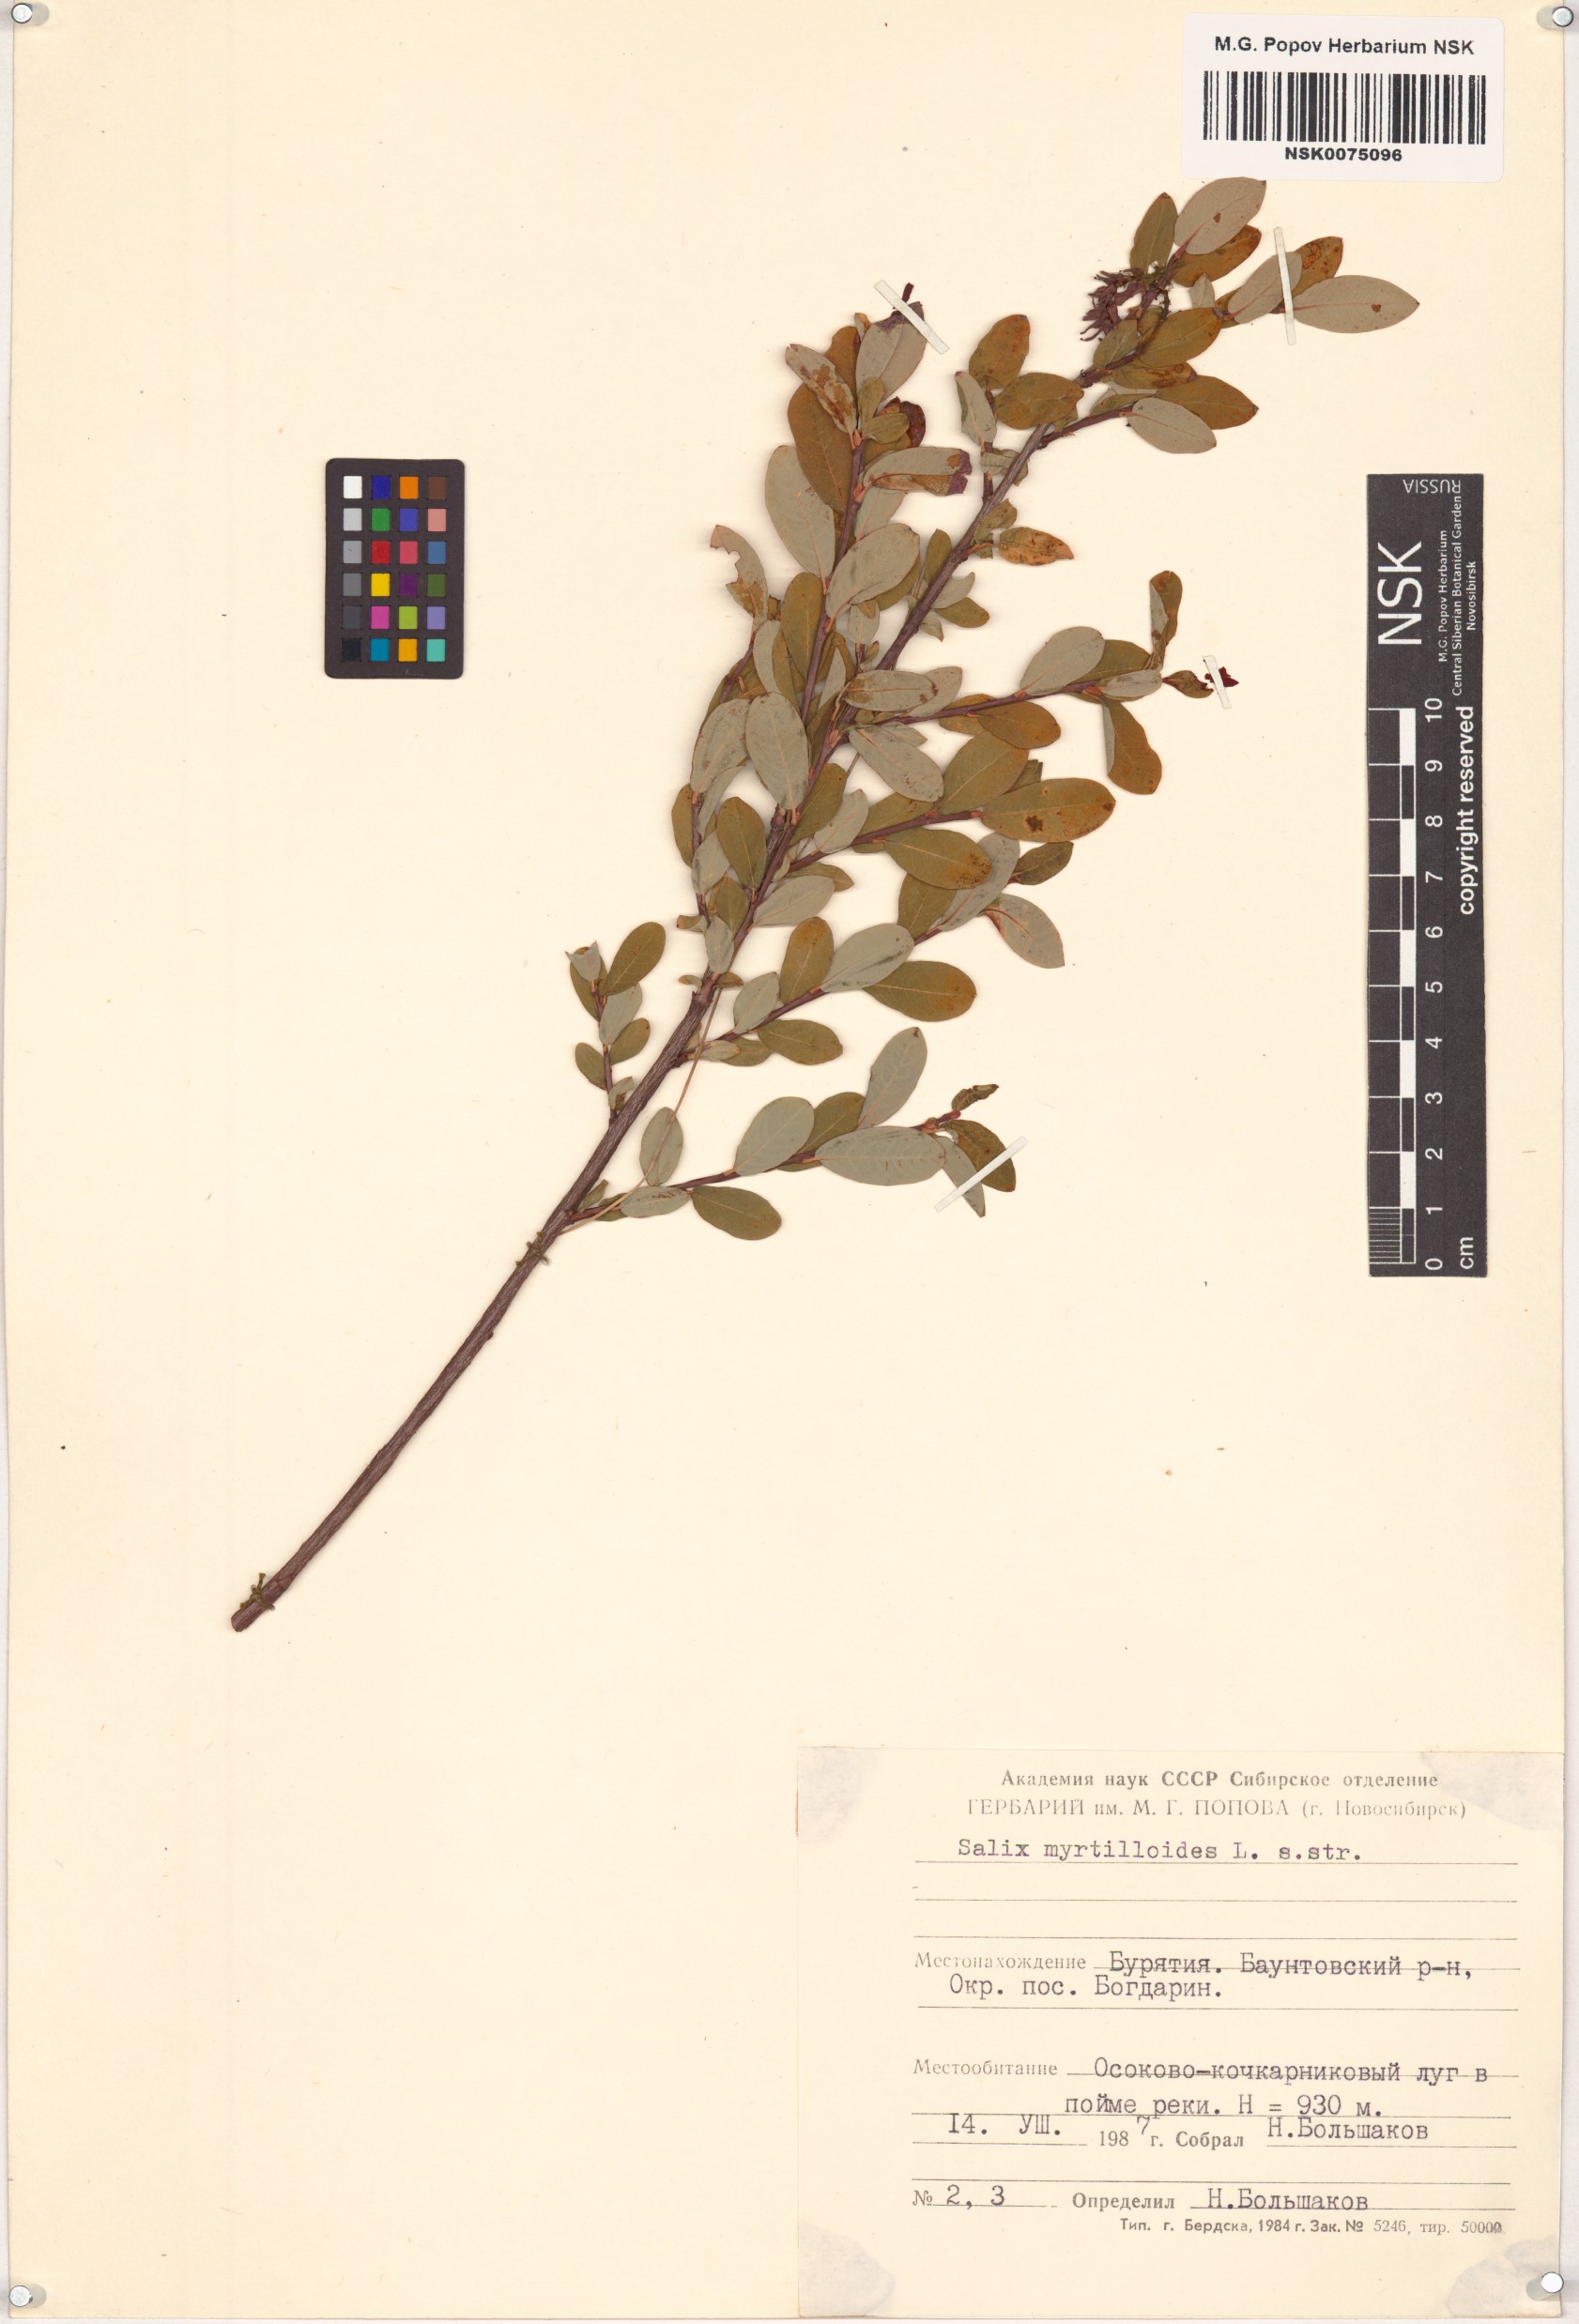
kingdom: Plantae
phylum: Tracheophyta
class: Magnoliopsida
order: Malpighiales
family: Salicaceae
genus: Salix
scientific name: Salix myrtilloides
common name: Myrtle-leaved willow
